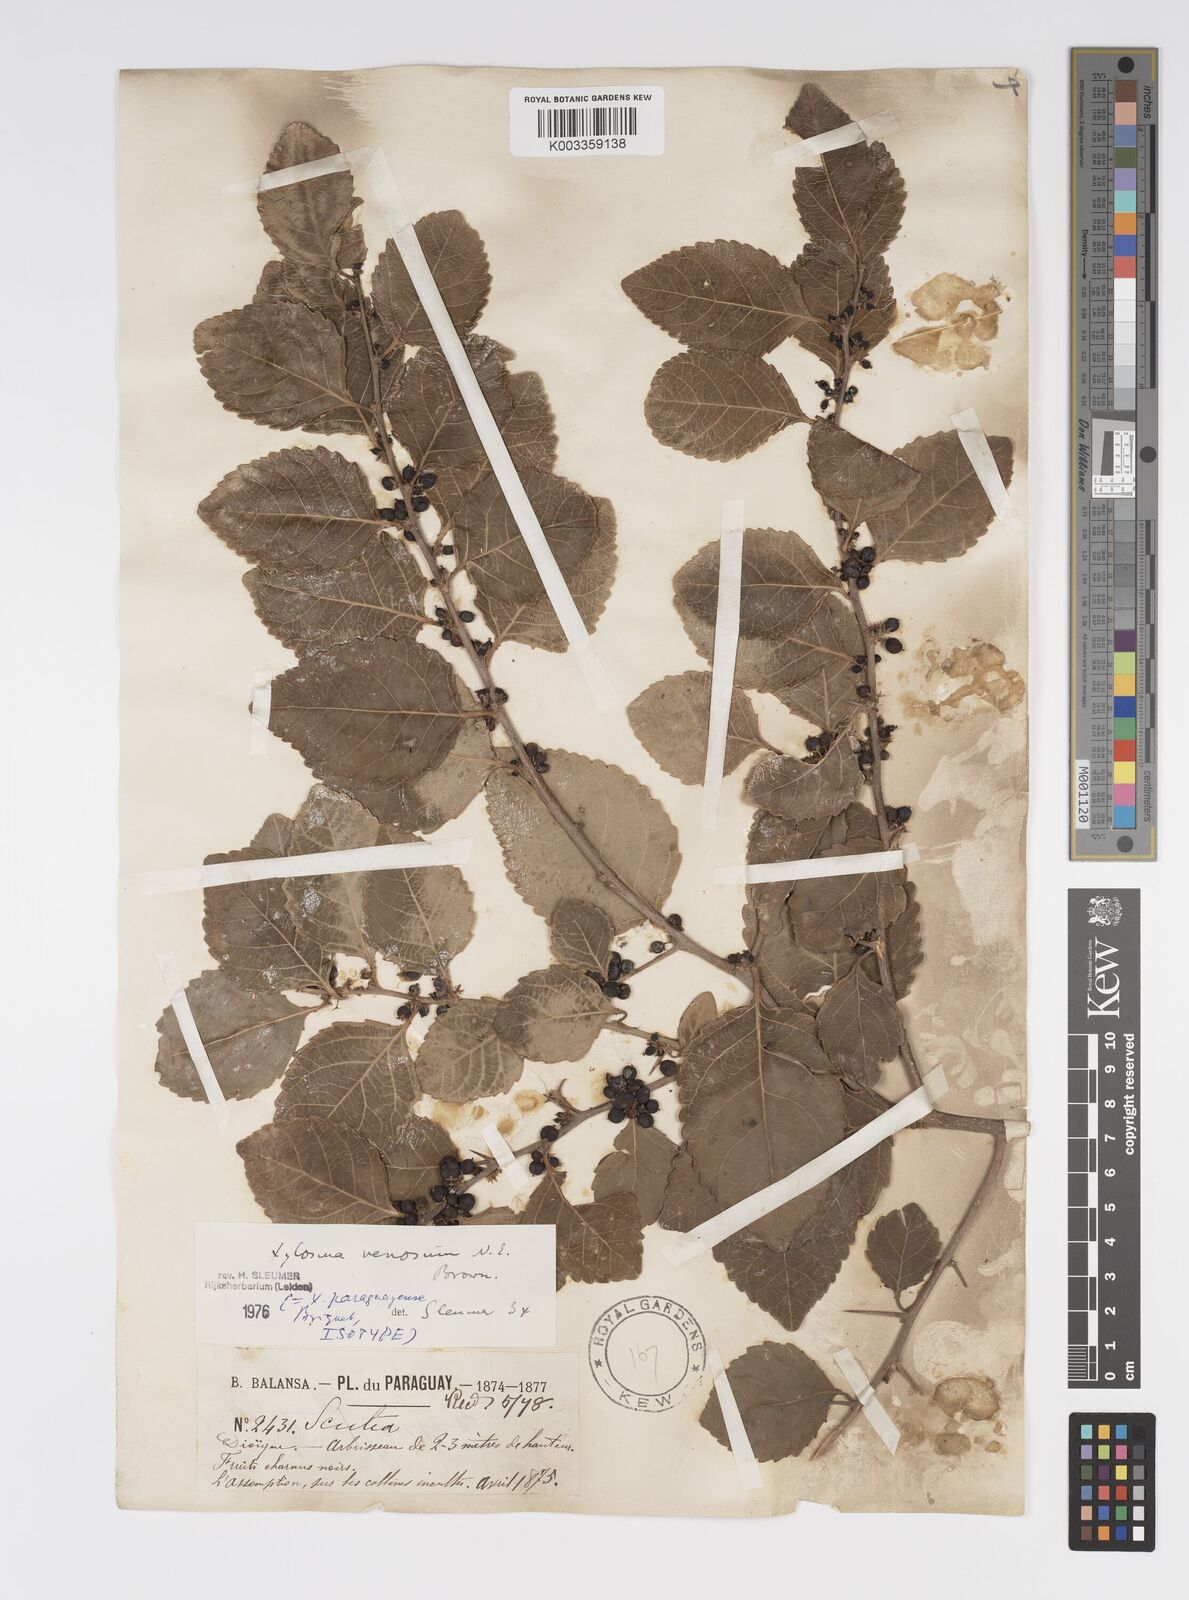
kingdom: Plantae
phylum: Tracheophyta
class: Magnoliopsida
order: Malpighiales
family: Salicaceae
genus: Xylosma
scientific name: Xylosma venosa
